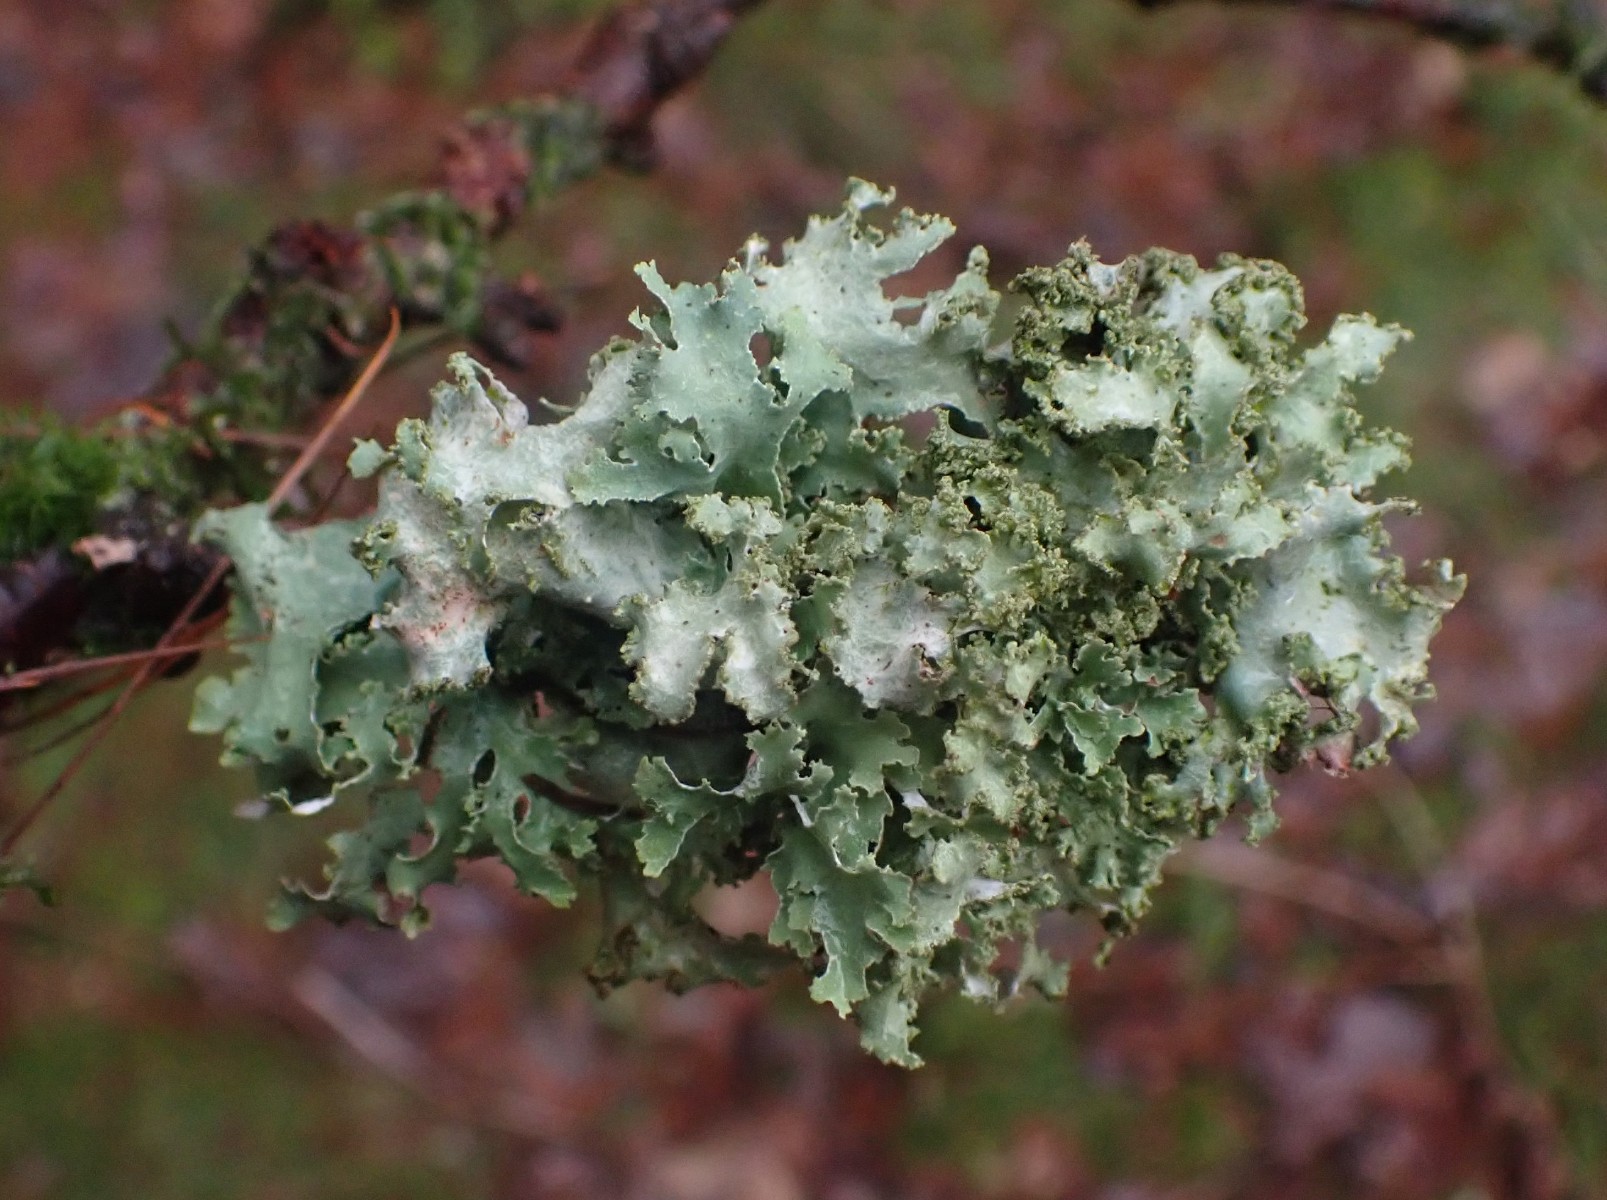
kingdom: Fungi
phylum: Ascomycota
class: Lecanoromycetes
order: Lecanorales
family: Parmeliaceae
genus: Platismatia
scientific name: Platismatia glauca
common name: blågrå papirlav
